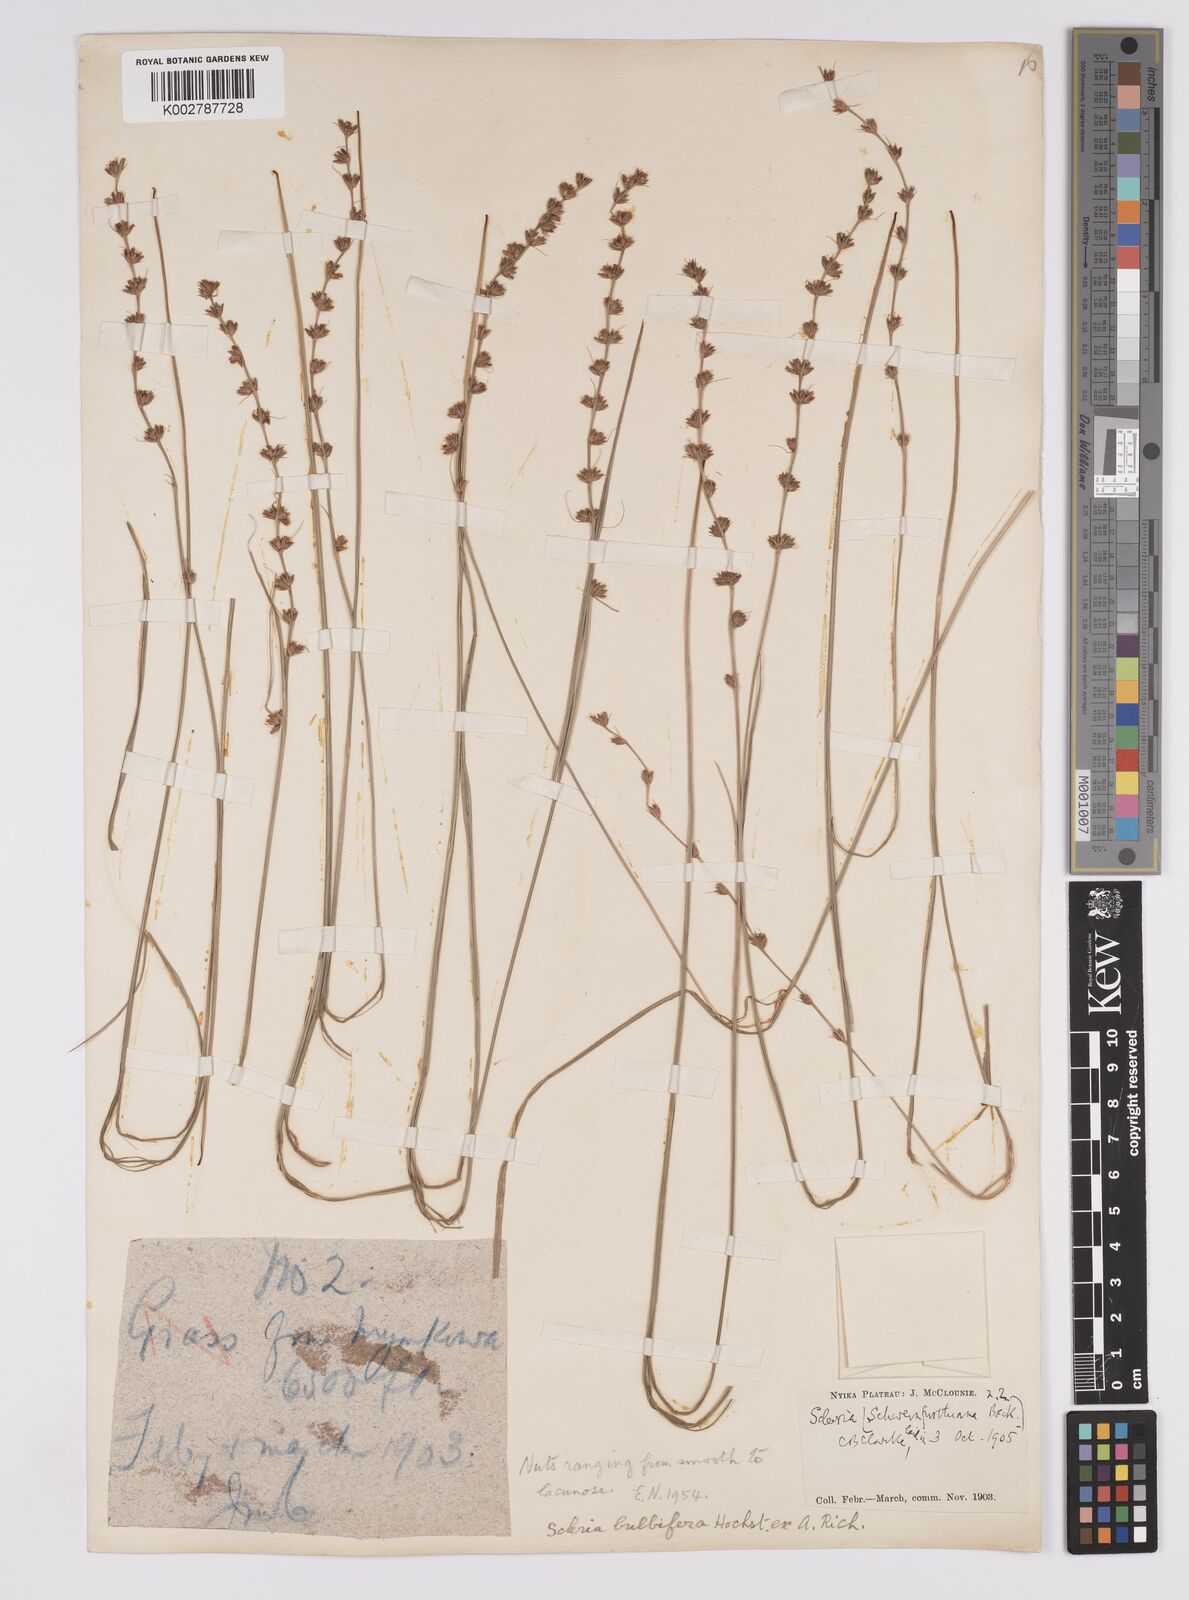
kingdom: Plantae
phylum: Tracheophyta
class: Liliopsida
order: Poales
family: Cyperaceae
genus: Scleria
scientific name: Scleria bulbifera
